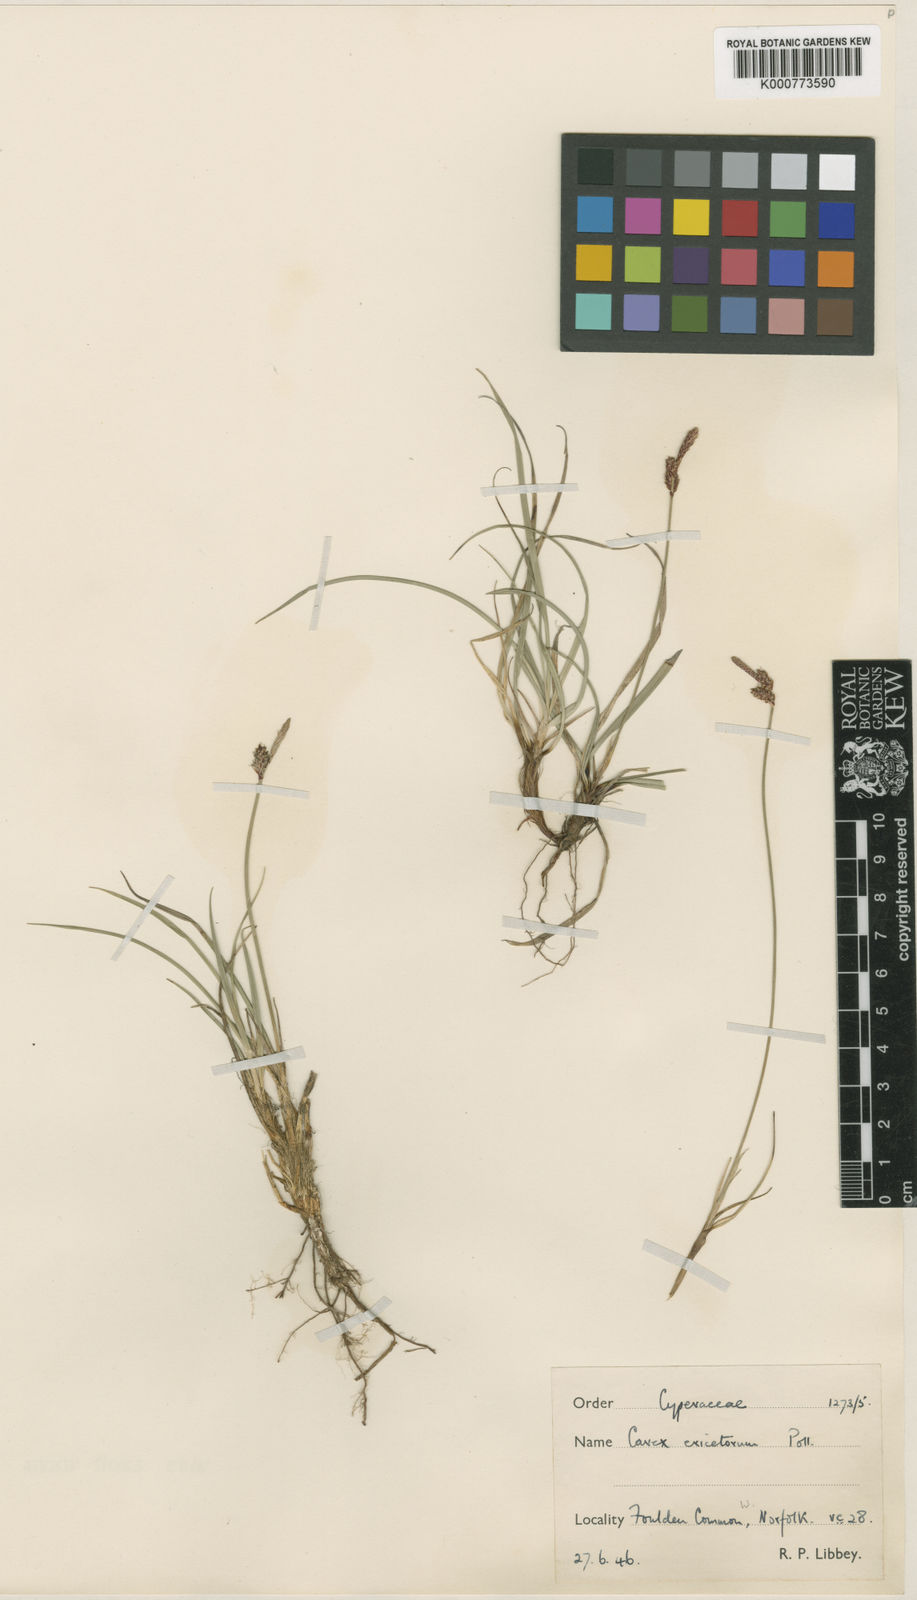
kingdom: Plantae
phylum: Tracheophyta
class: Liliopsida
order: Poales
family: Cyperaceae
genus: Carex
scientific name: Carex ericetorum
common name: Rare spring-sedge
